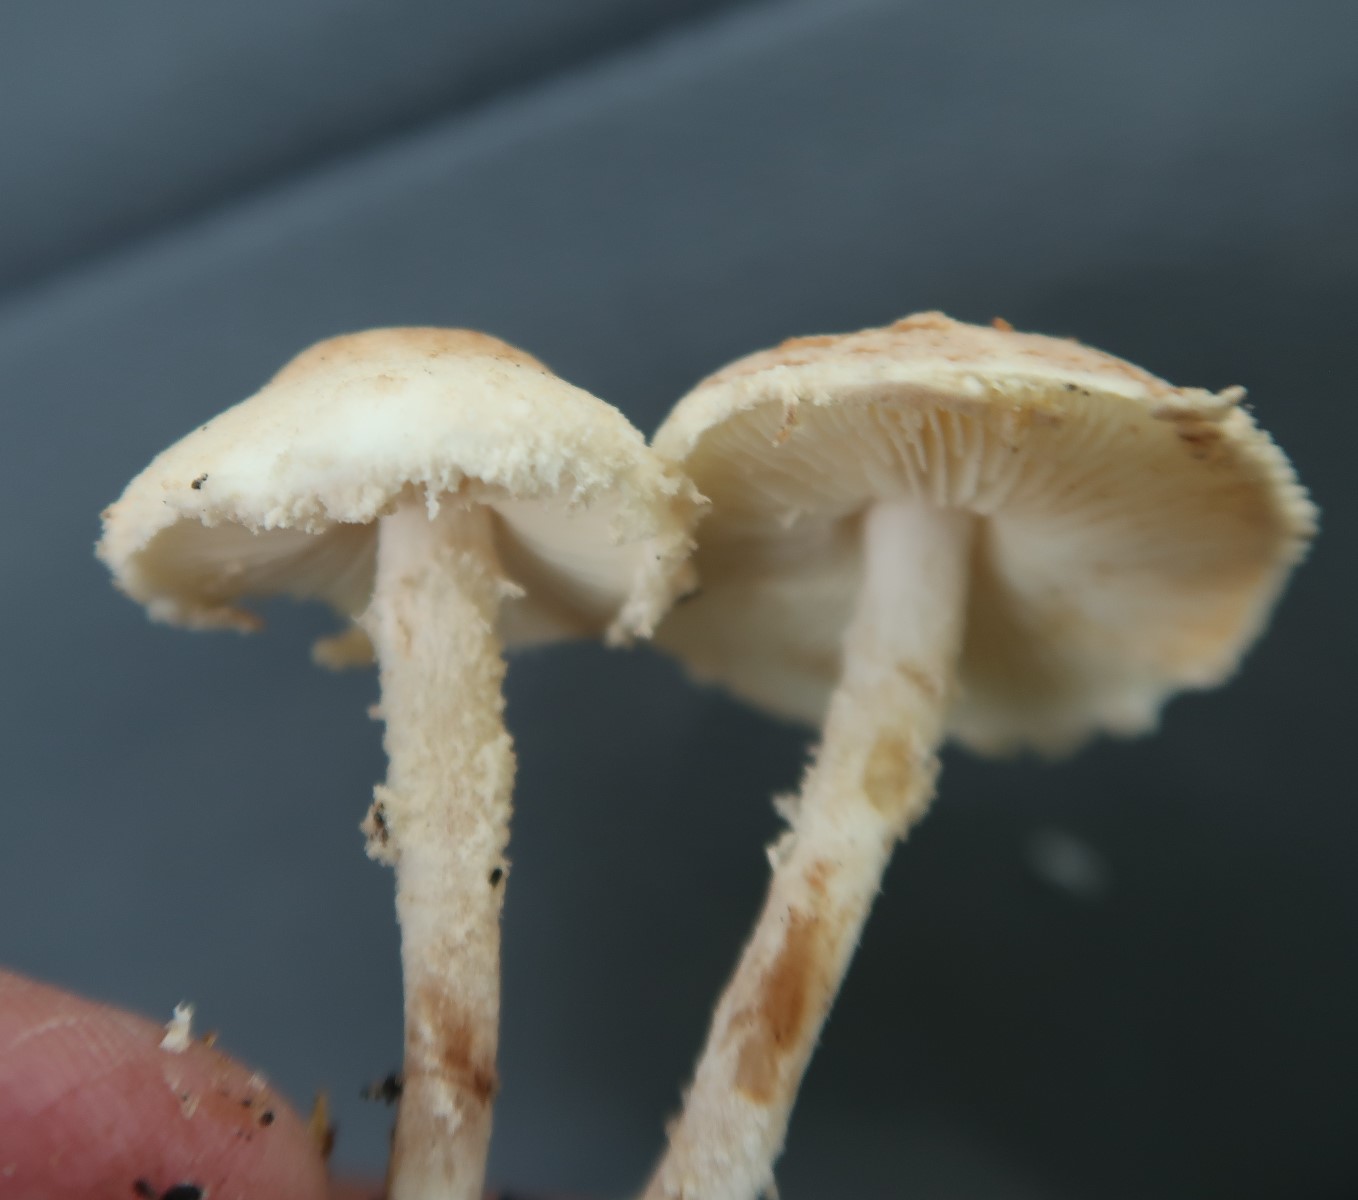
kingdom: Fungi
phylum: Basidiomycota
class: Agaricomycetes
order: Agaricales
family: Agaricaceae
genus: Cystolepiota
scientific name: Cystolepiota hetieri
